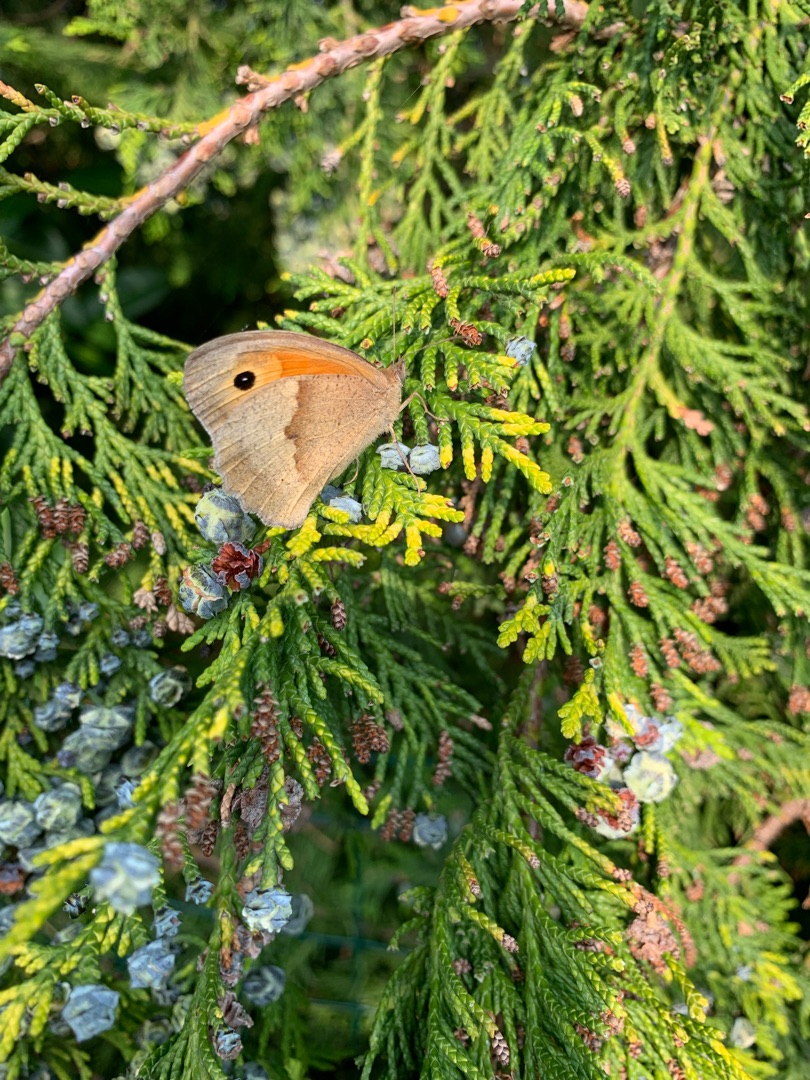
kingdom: Animalia
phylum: Arthropoda
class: Insecta
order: Lepidoptera
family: Nymphalidae
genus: Maniola
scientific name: Maniola jurtina
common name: Græsrandøje
